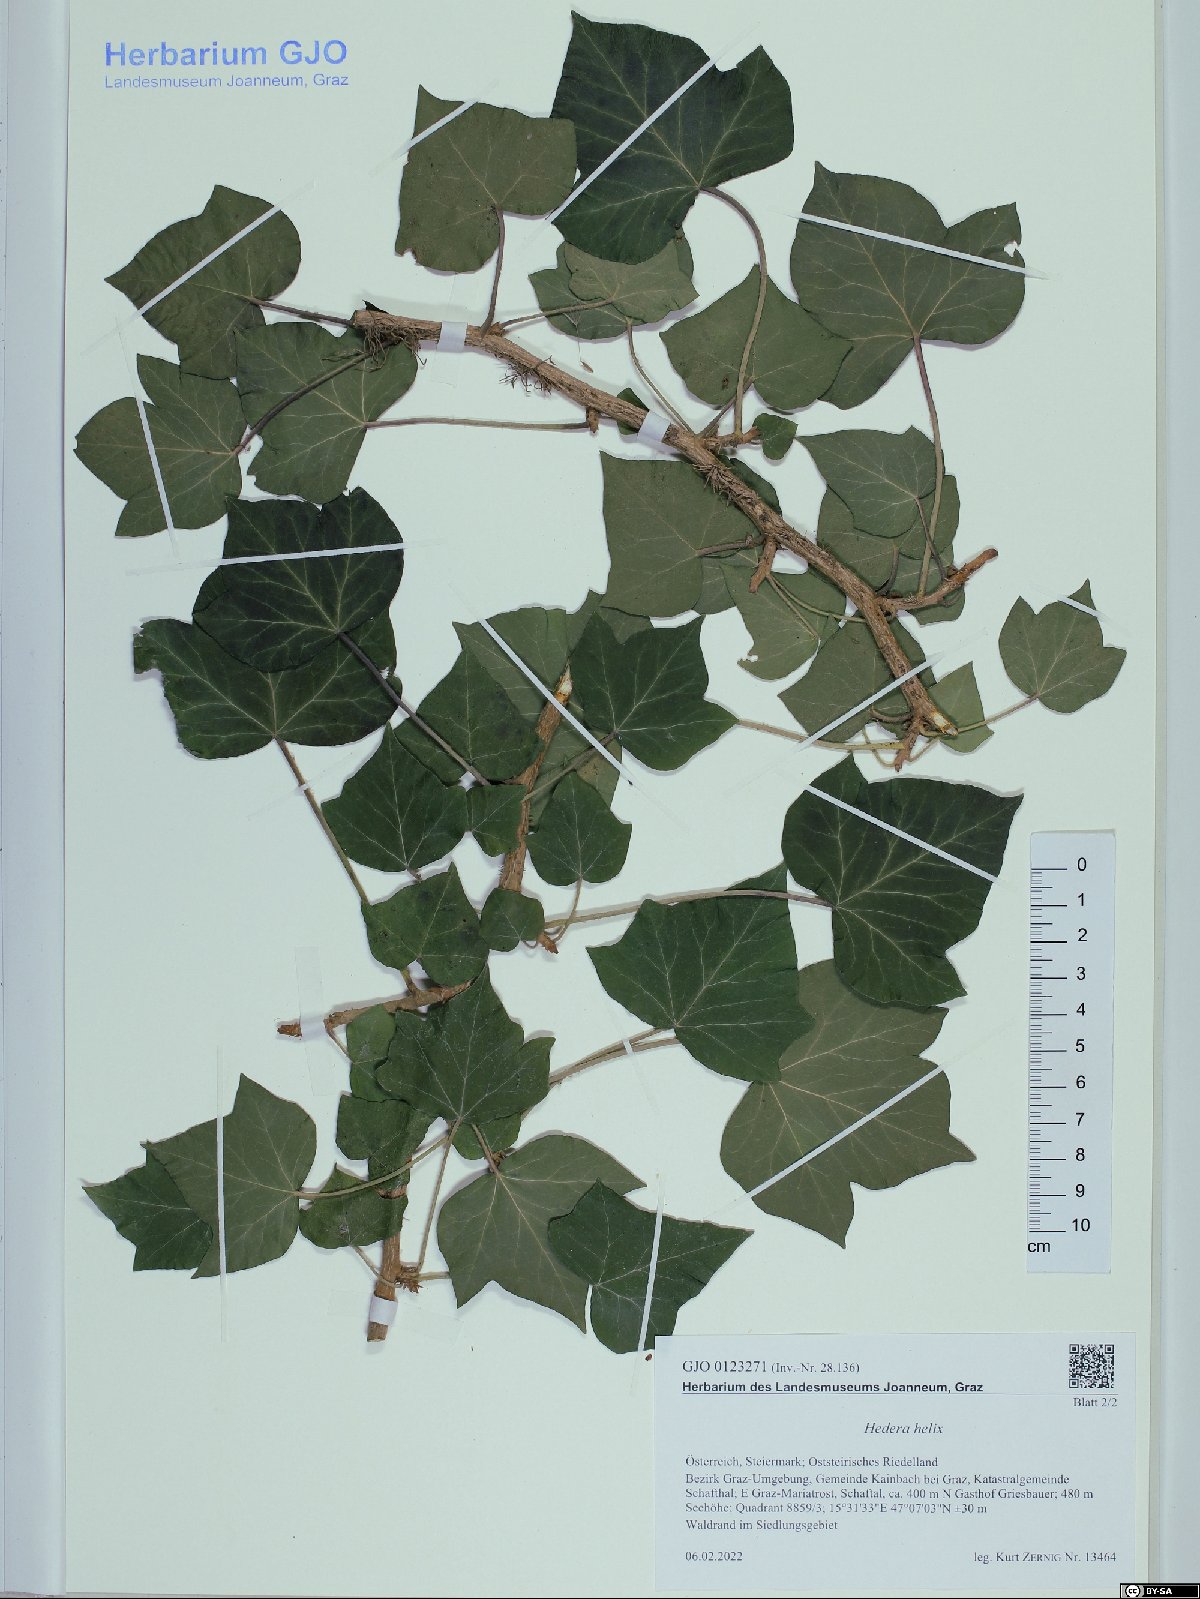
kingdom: Plantae
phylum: Tracheophyta
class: Magnoliopsida
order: Apiales
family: Araliaceae
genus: Hedera
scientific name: Hedera helix
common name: Ivy
